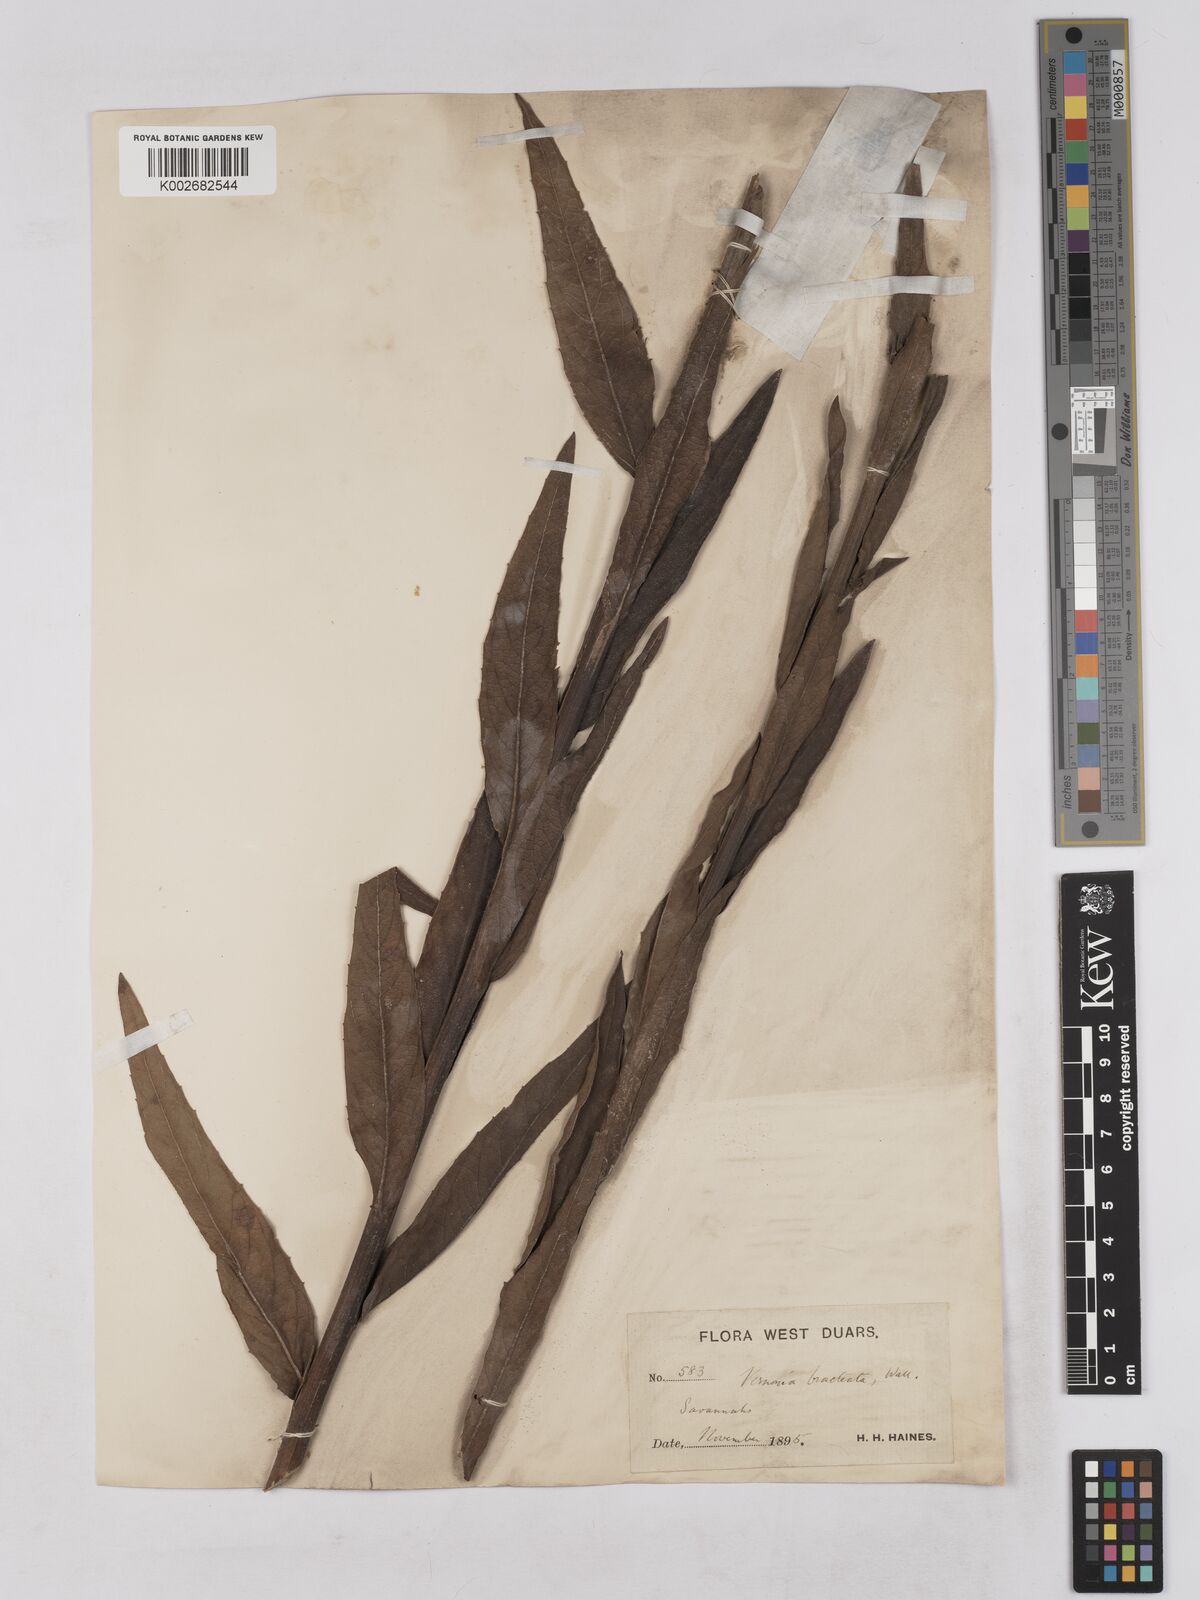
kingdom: Plantae
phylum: Tracheophyta
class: Magnoliopsida
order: Asterales
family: Asteraceae
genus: Acilepis
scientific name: Acilepis silhetensis
